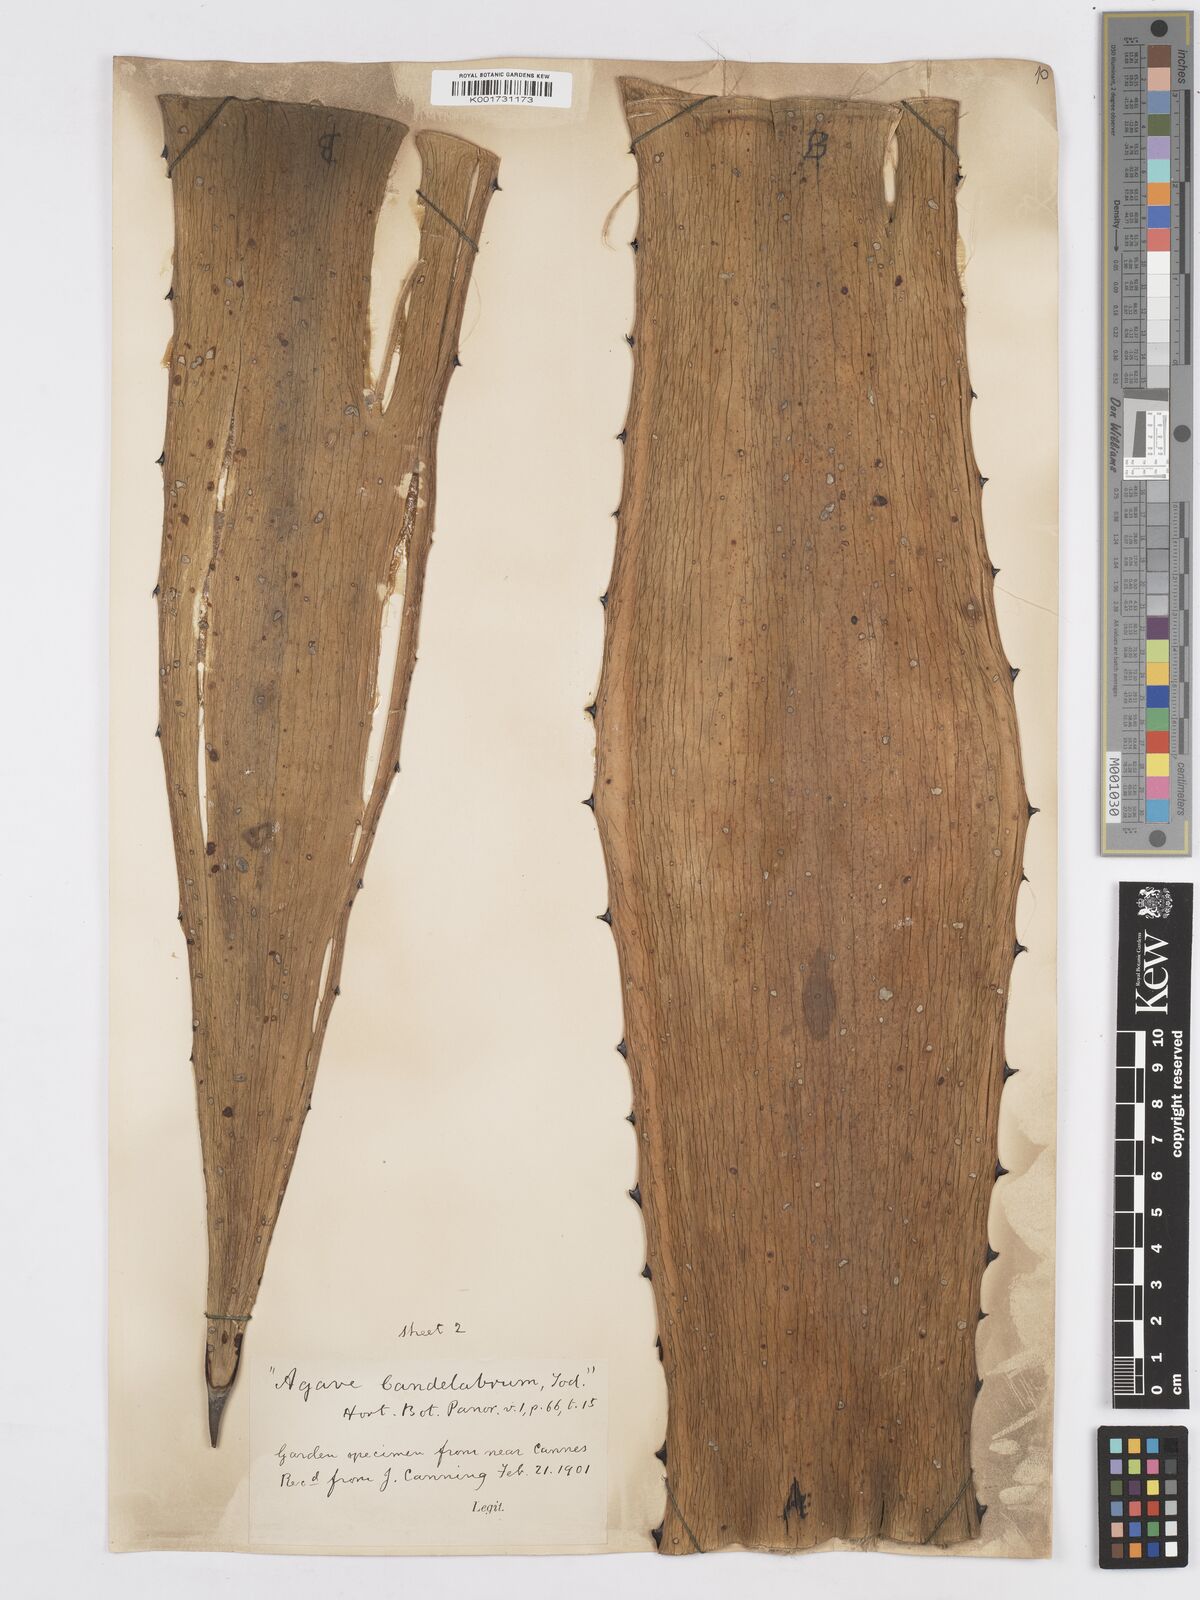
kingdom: Plantae
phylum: Tracheophyta
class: Liliopsida
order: Asparagales
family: Asparagaceae
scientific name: Asparagaceae
